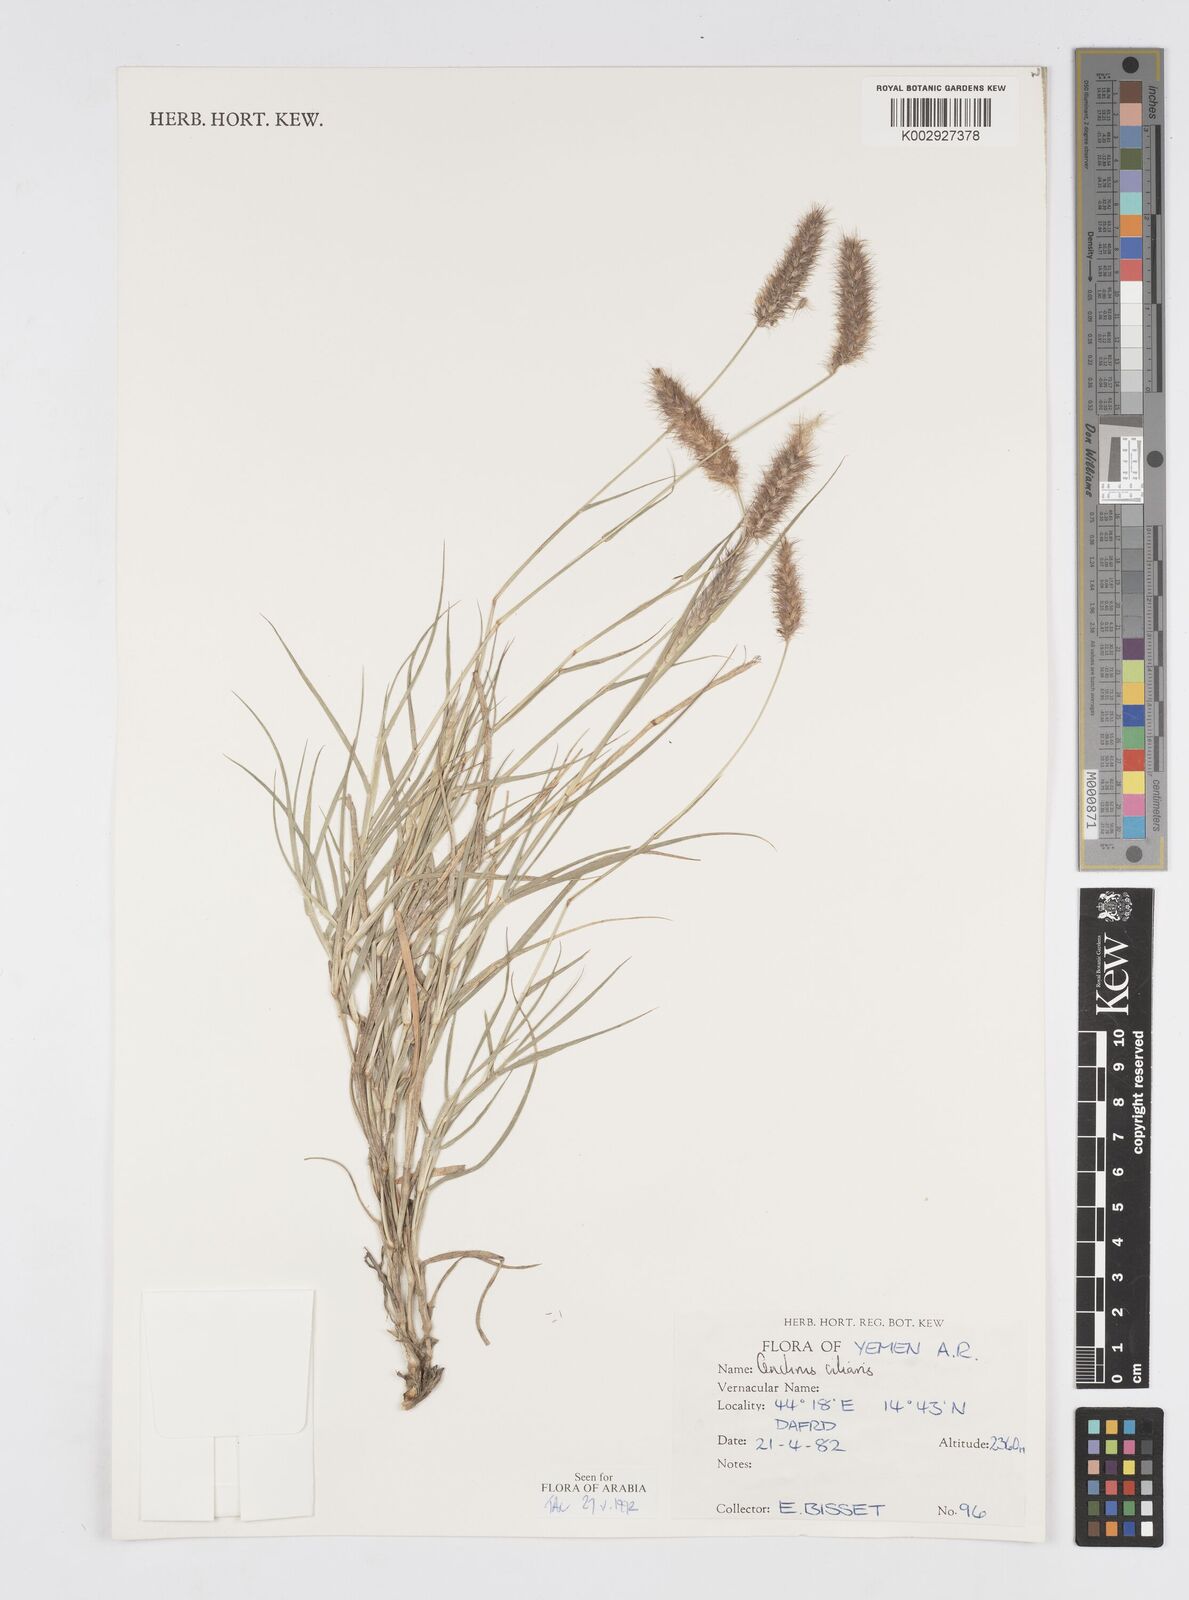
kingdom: Plantae
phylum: Tracheophyta
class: Liliopsida
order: Poales
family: Poaceae
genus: Cenchrus
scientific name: Cenchrus ciliaris
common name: Buffelgrass
